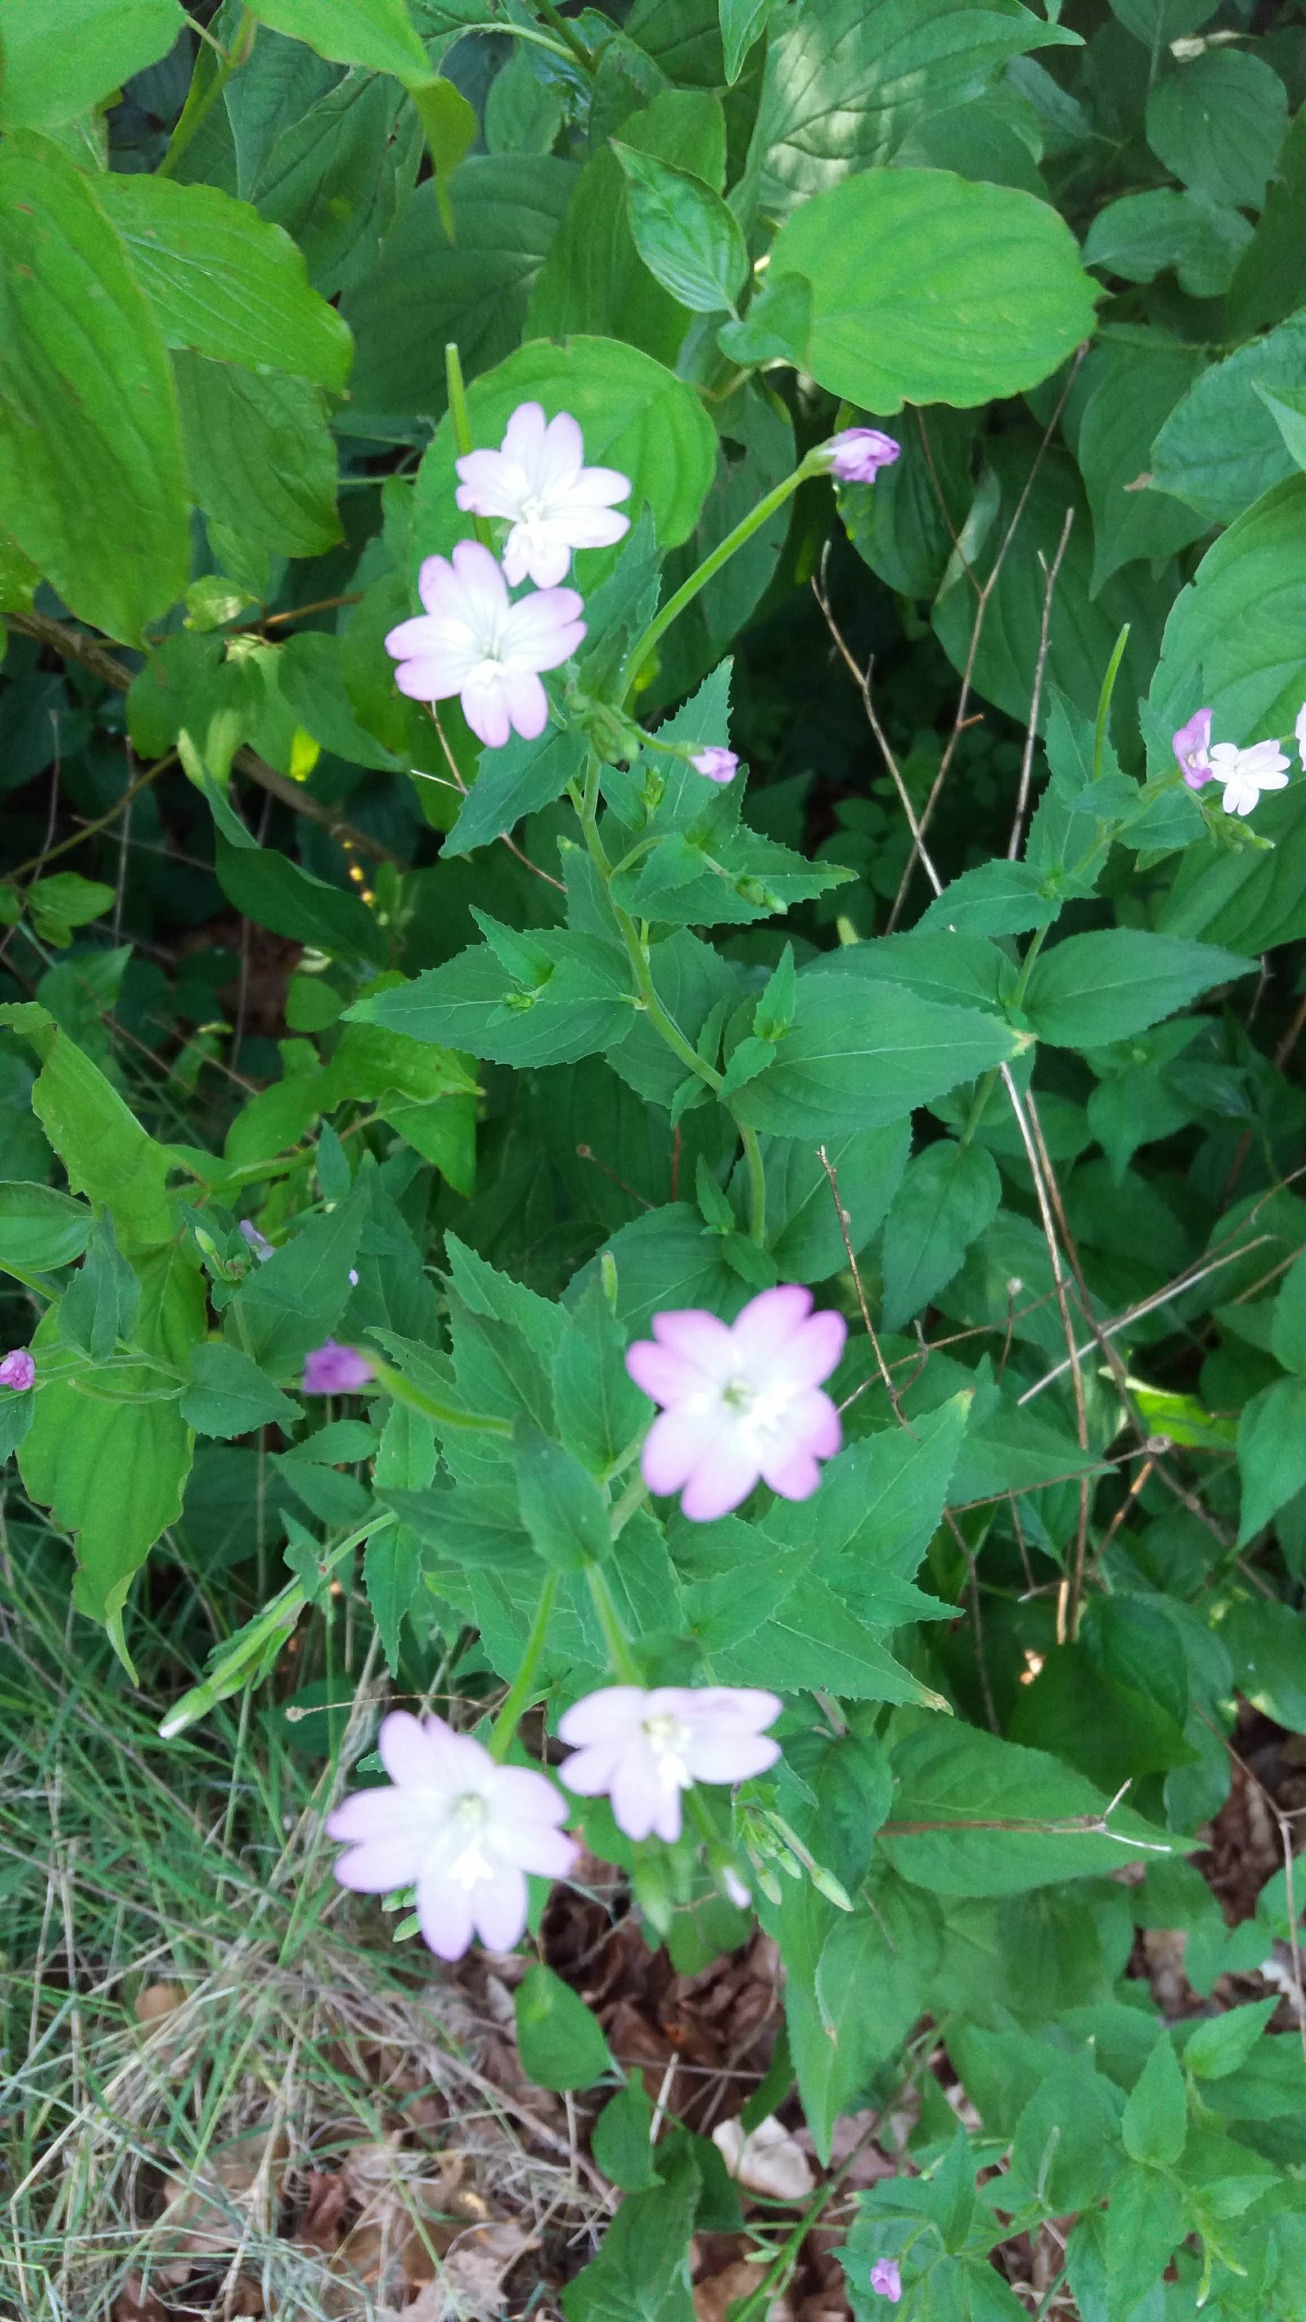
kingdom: Plantae
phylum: Tracheophyta
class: Magnoliopsida
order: Myrtales
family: Onagraceae
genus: Epilobium
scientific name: Epilobium montanum
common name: Glat dueurt
